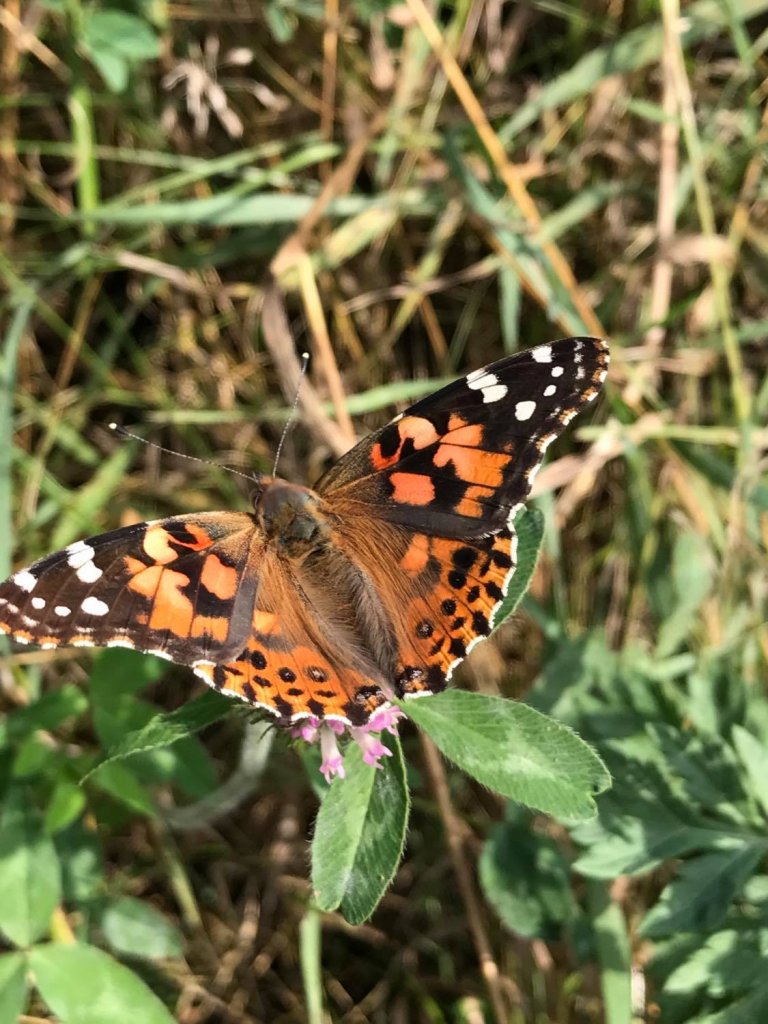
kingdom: Animalia
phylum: Arthropoda
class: Insecta
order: Lepidoptera
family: Nymphalidae
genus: Vanessa
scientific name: Vanessa cardui
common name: Painted Lady
